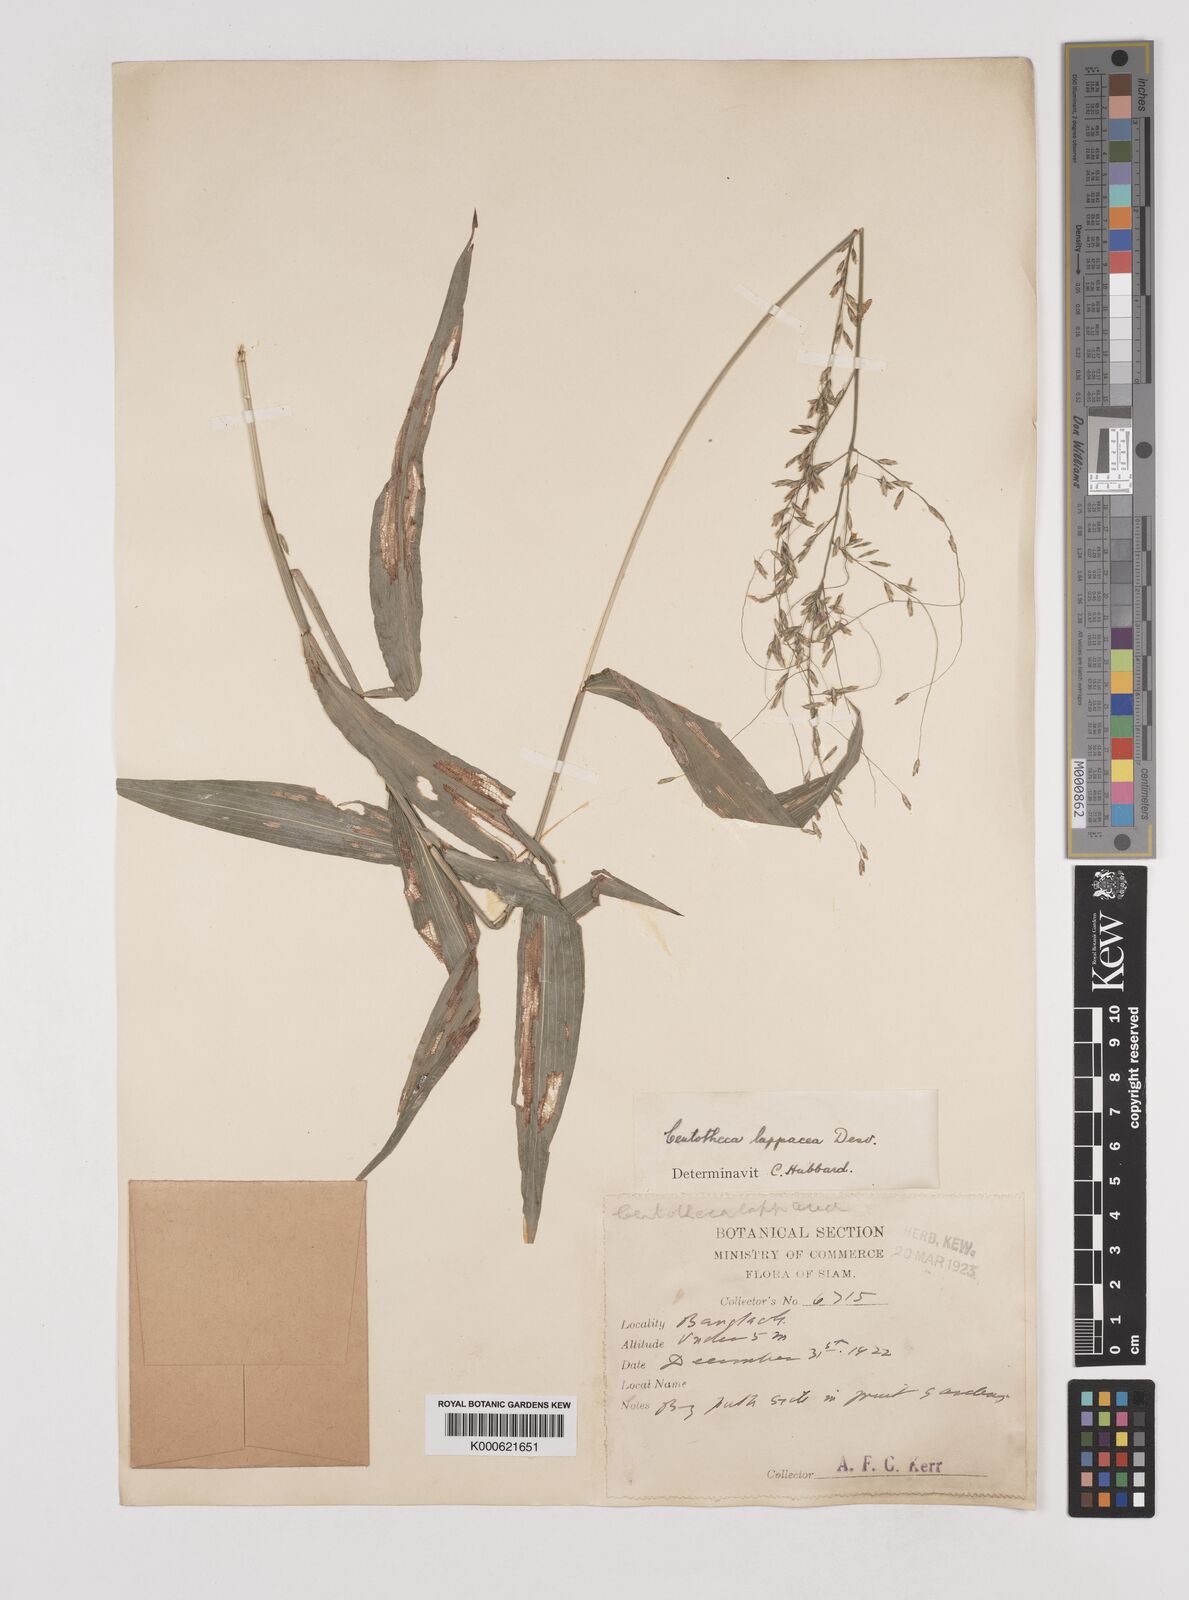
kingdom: Plantae
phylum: Tracheophyta
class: Liliopsida
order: Poales
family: Poaceae
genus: Centotheca
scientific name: Centotheca lappacea
